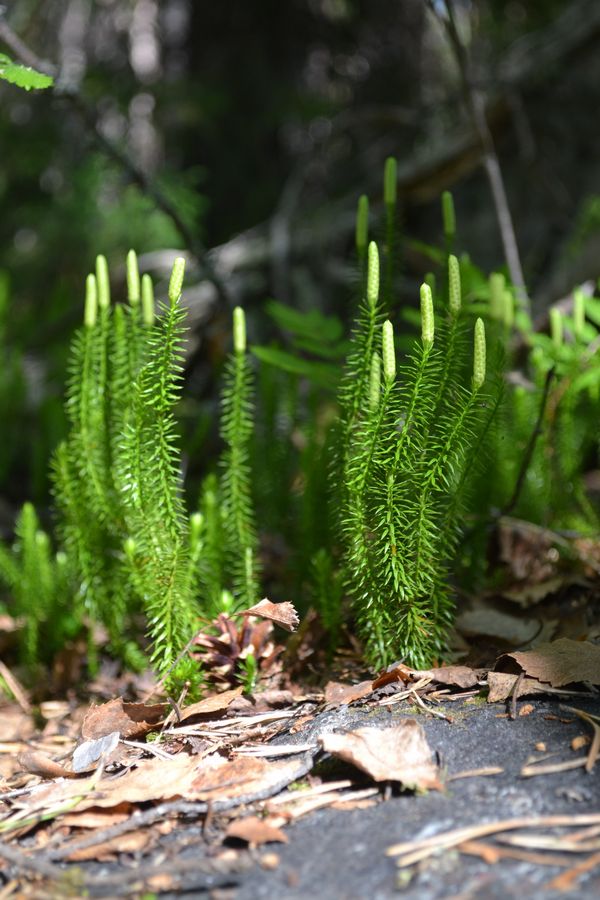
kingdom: Plantae
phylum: Tracheophyta
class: Lycopodiopsida
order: Lycopodiales
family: Lycopodiaceae
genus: Spinulum
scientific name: Spinulum annotinum
